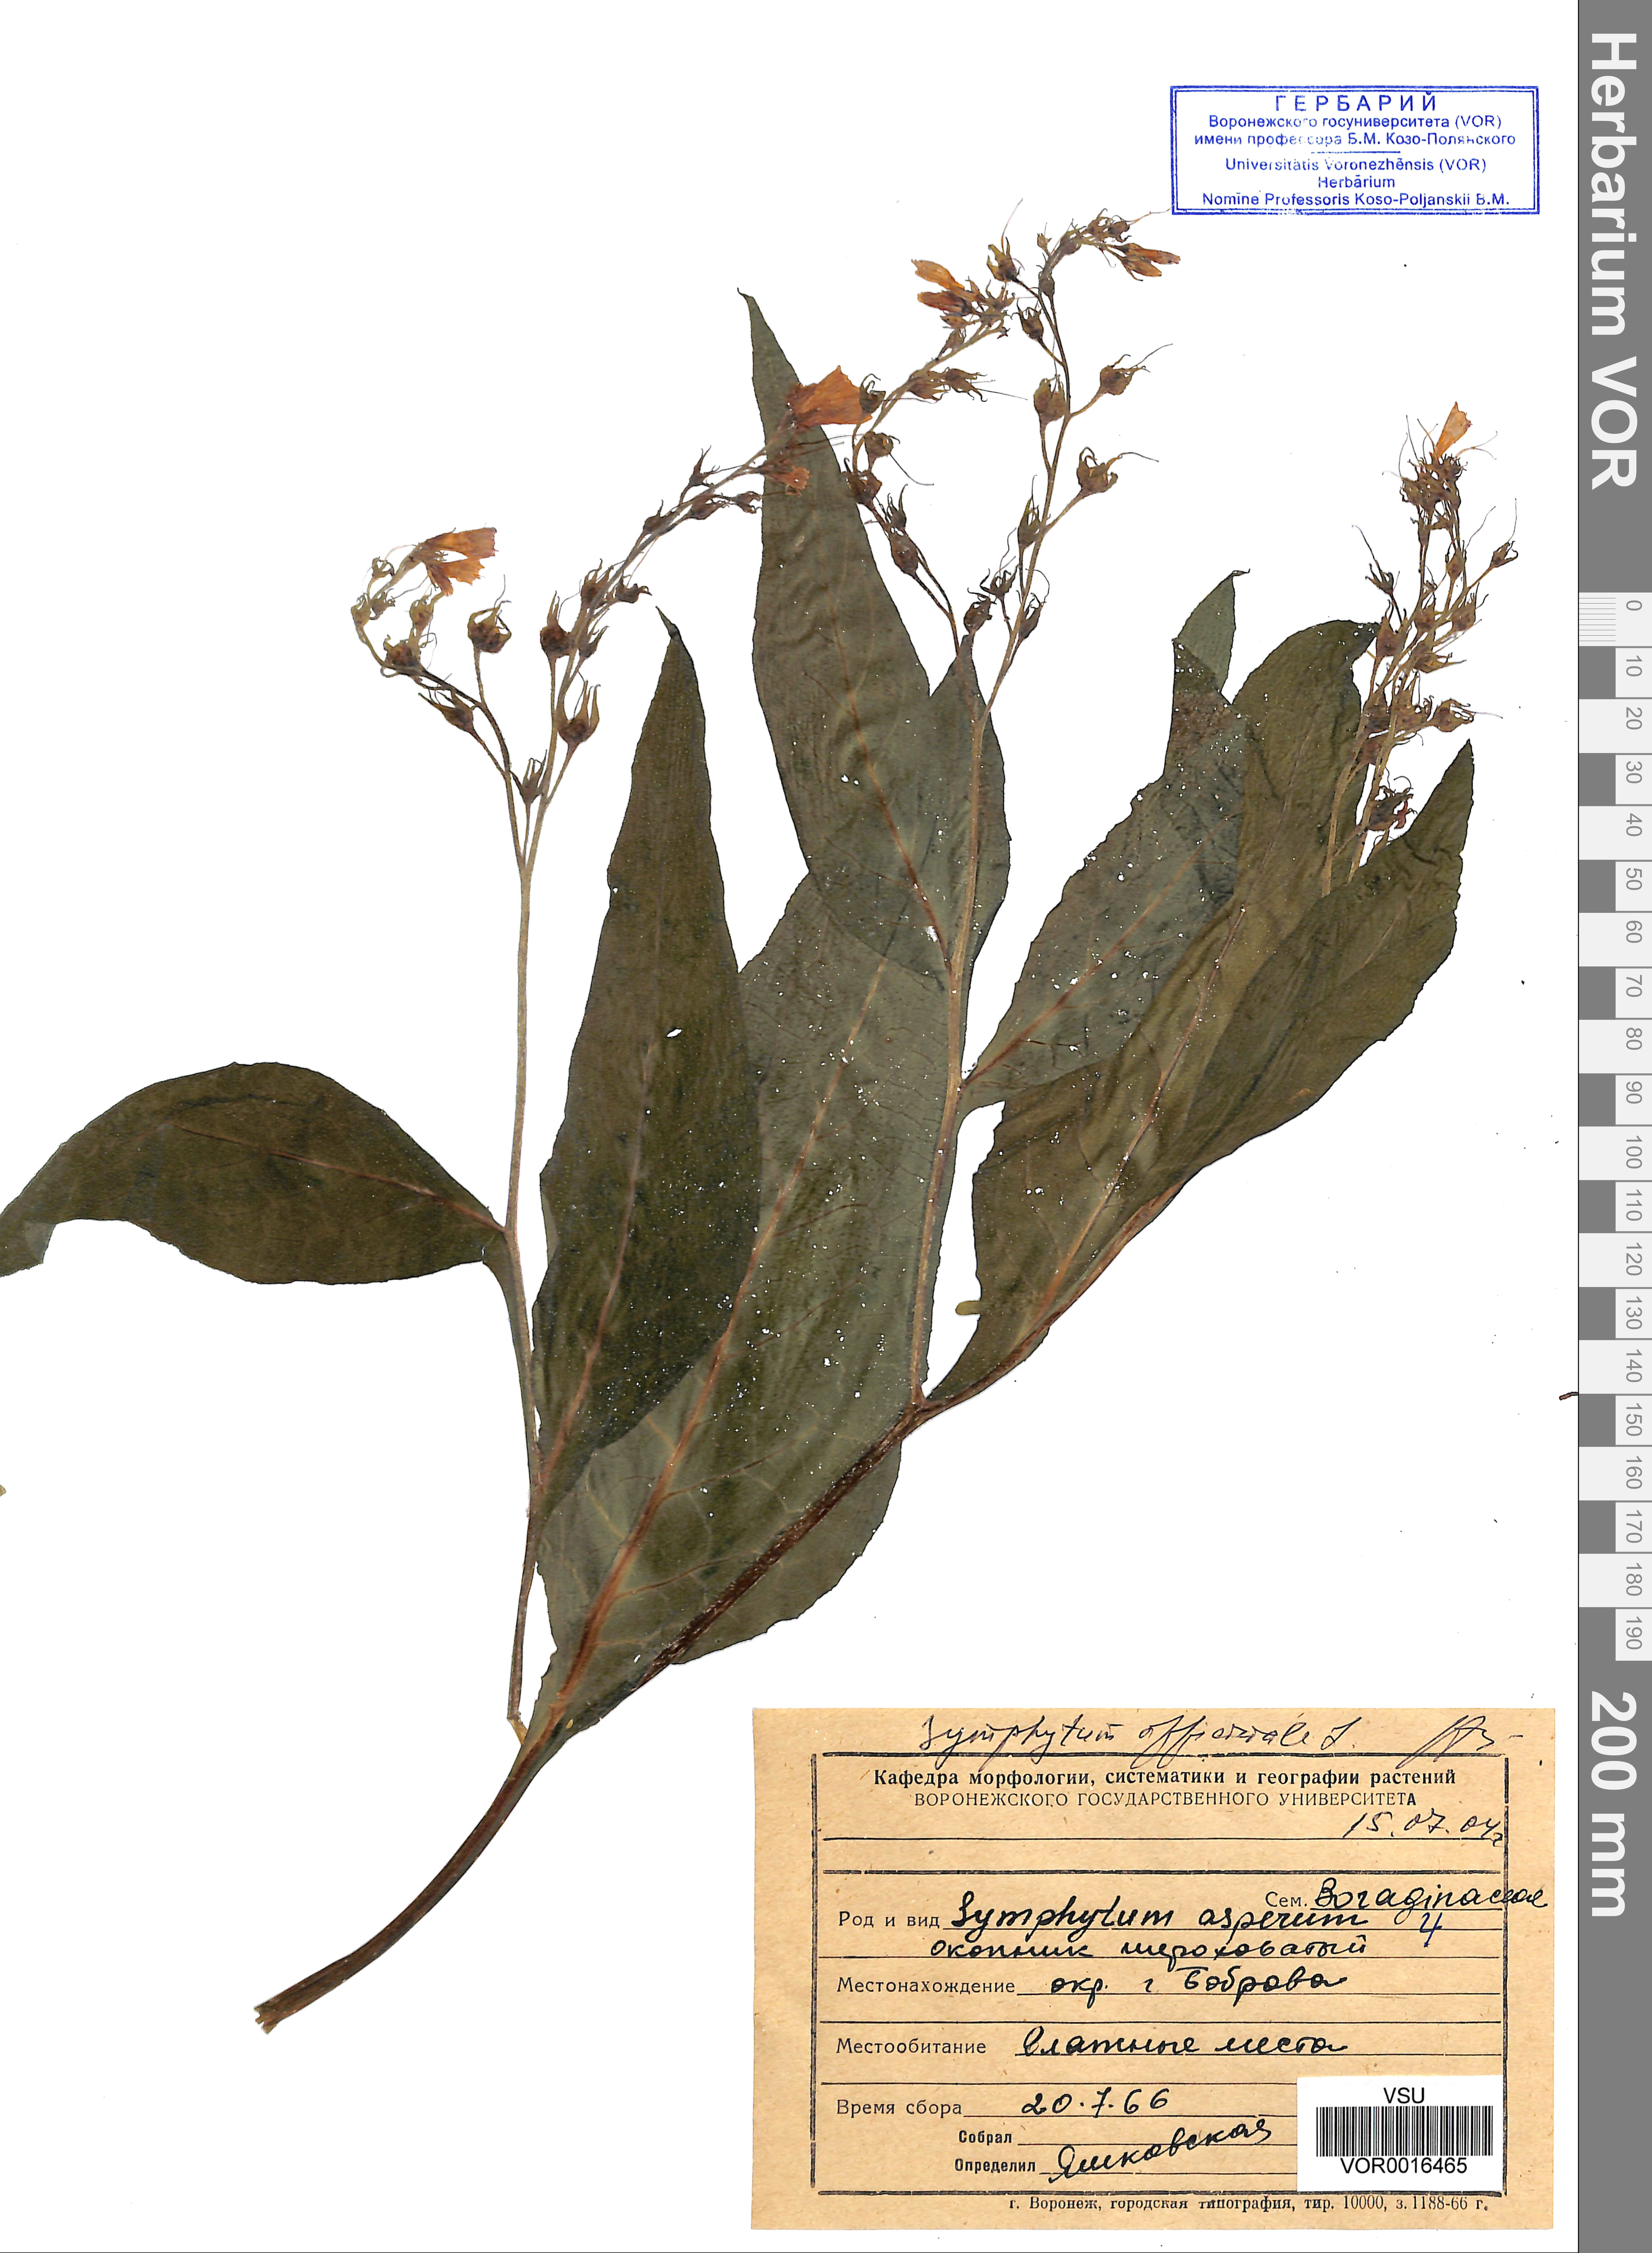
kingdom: Plantae
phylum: Tracheophyta
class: Magnoliopsida
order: Boraginales
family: Boraginaceae
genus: Symphytum
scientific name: Symphytum asperum
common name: Prickly comfrey
